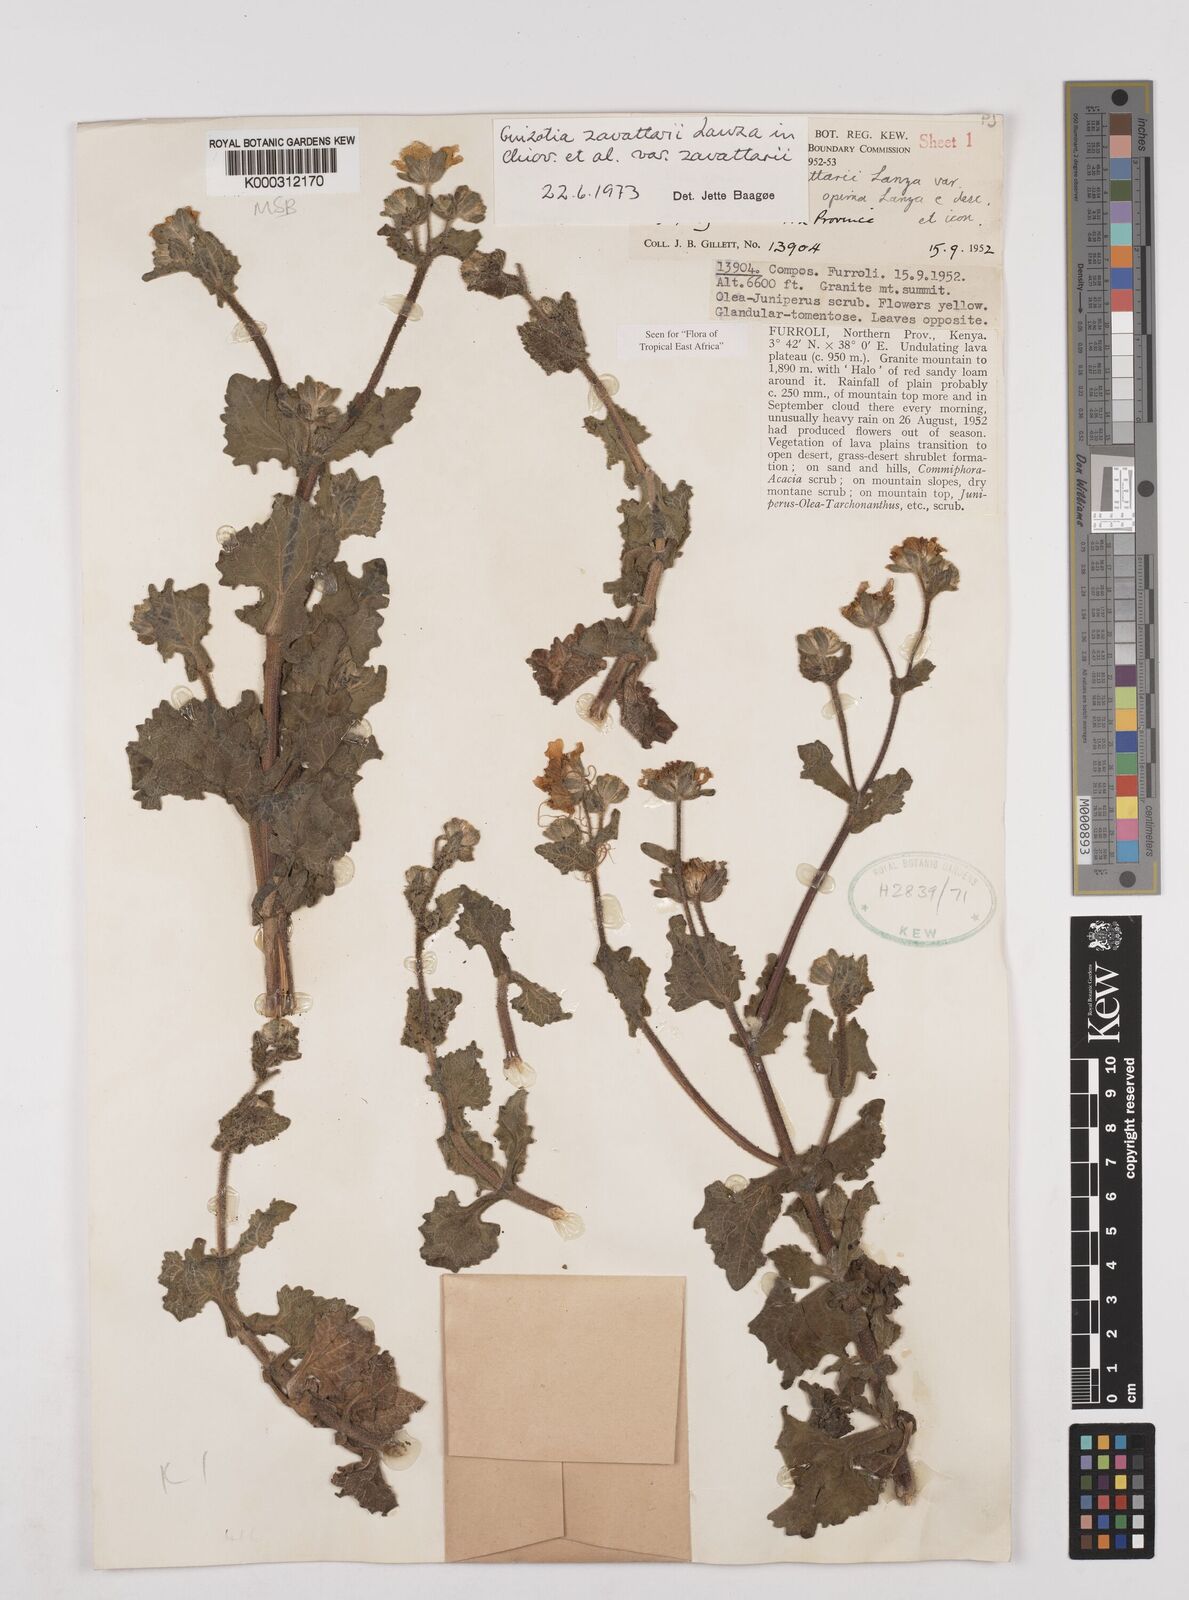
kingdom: Plantae
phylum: Tracheophyta
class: Magnoliopsida
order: Asterales
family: Asteraceae
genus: Guizotia
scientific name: Guizotia zavattarii
